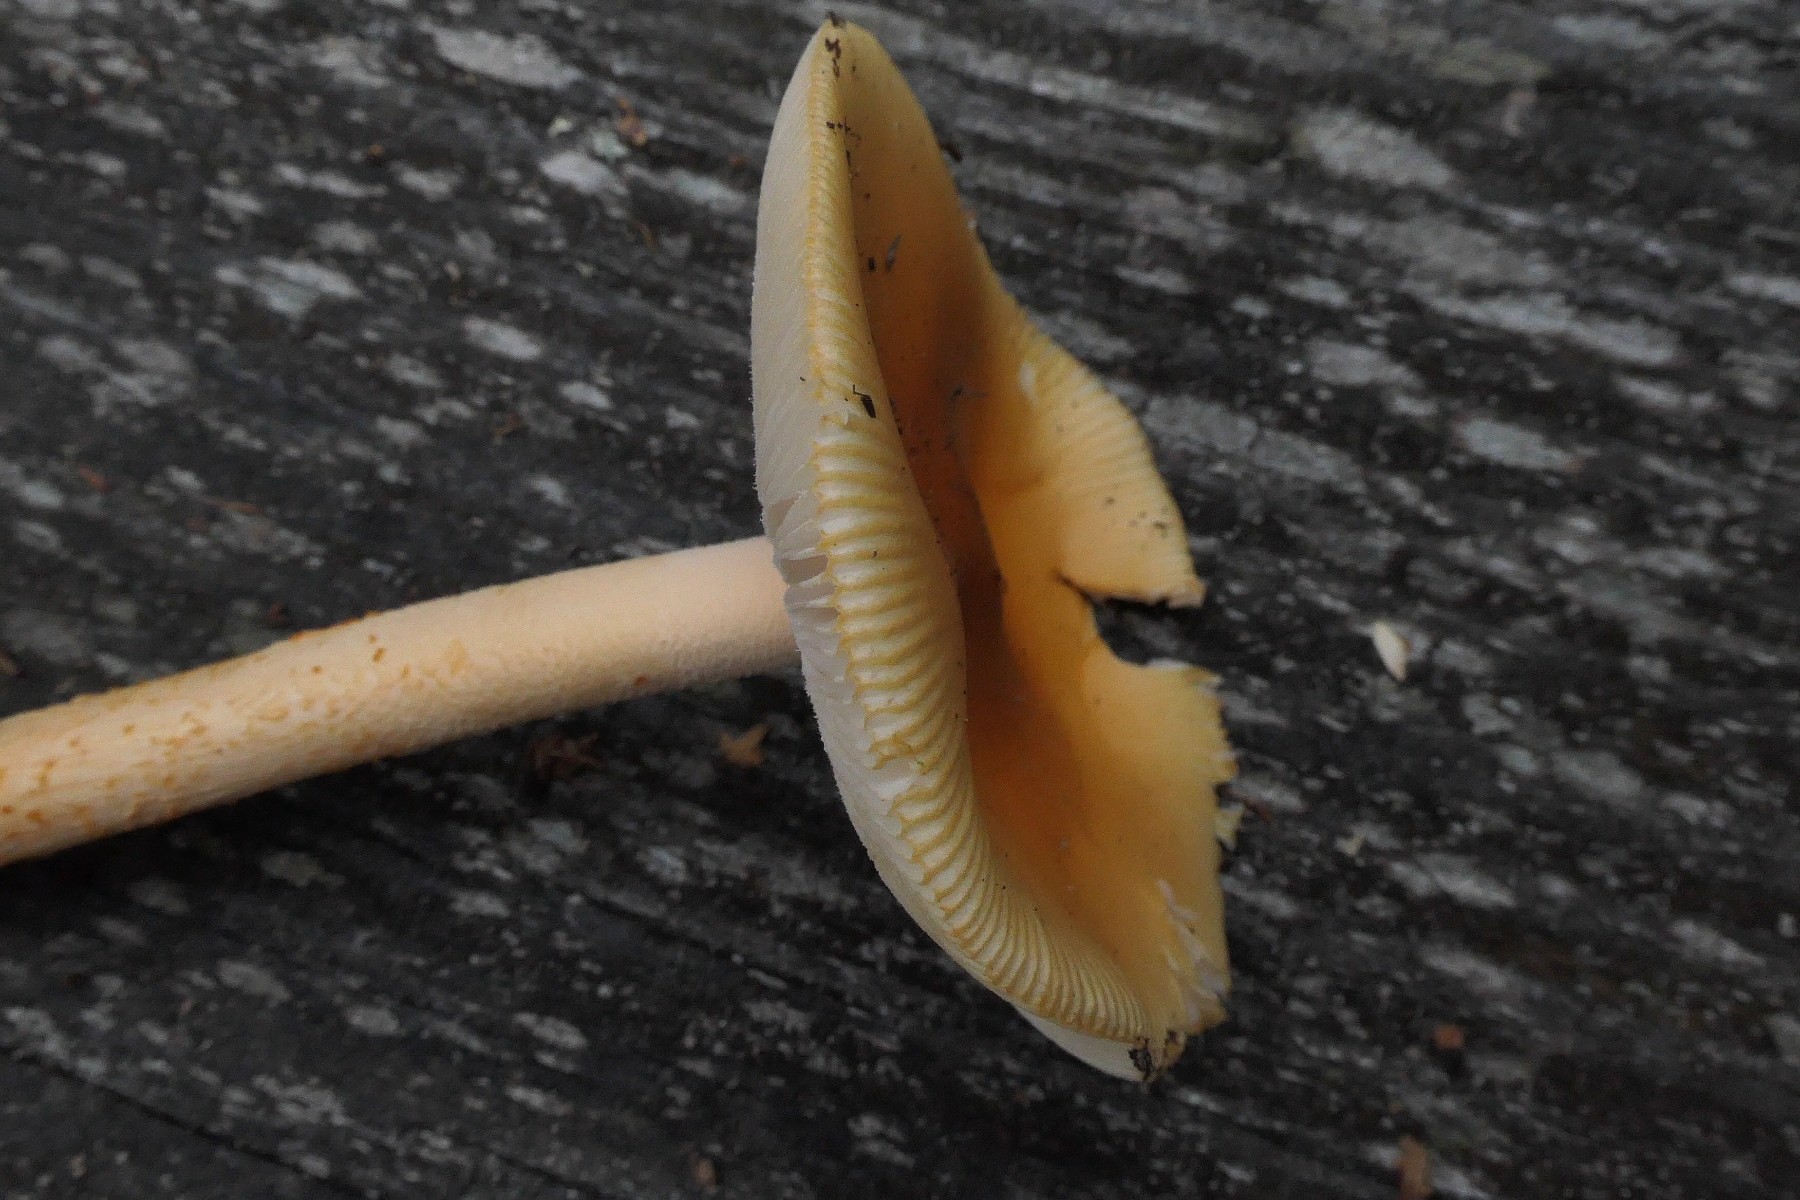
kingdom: Fungi
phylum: Basidiomycota
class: Agaricomycetes
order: Agaricales
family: Amanitaceae
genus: Amanita
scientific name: Amanita crocea
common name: gylden kam-fluesvamp
